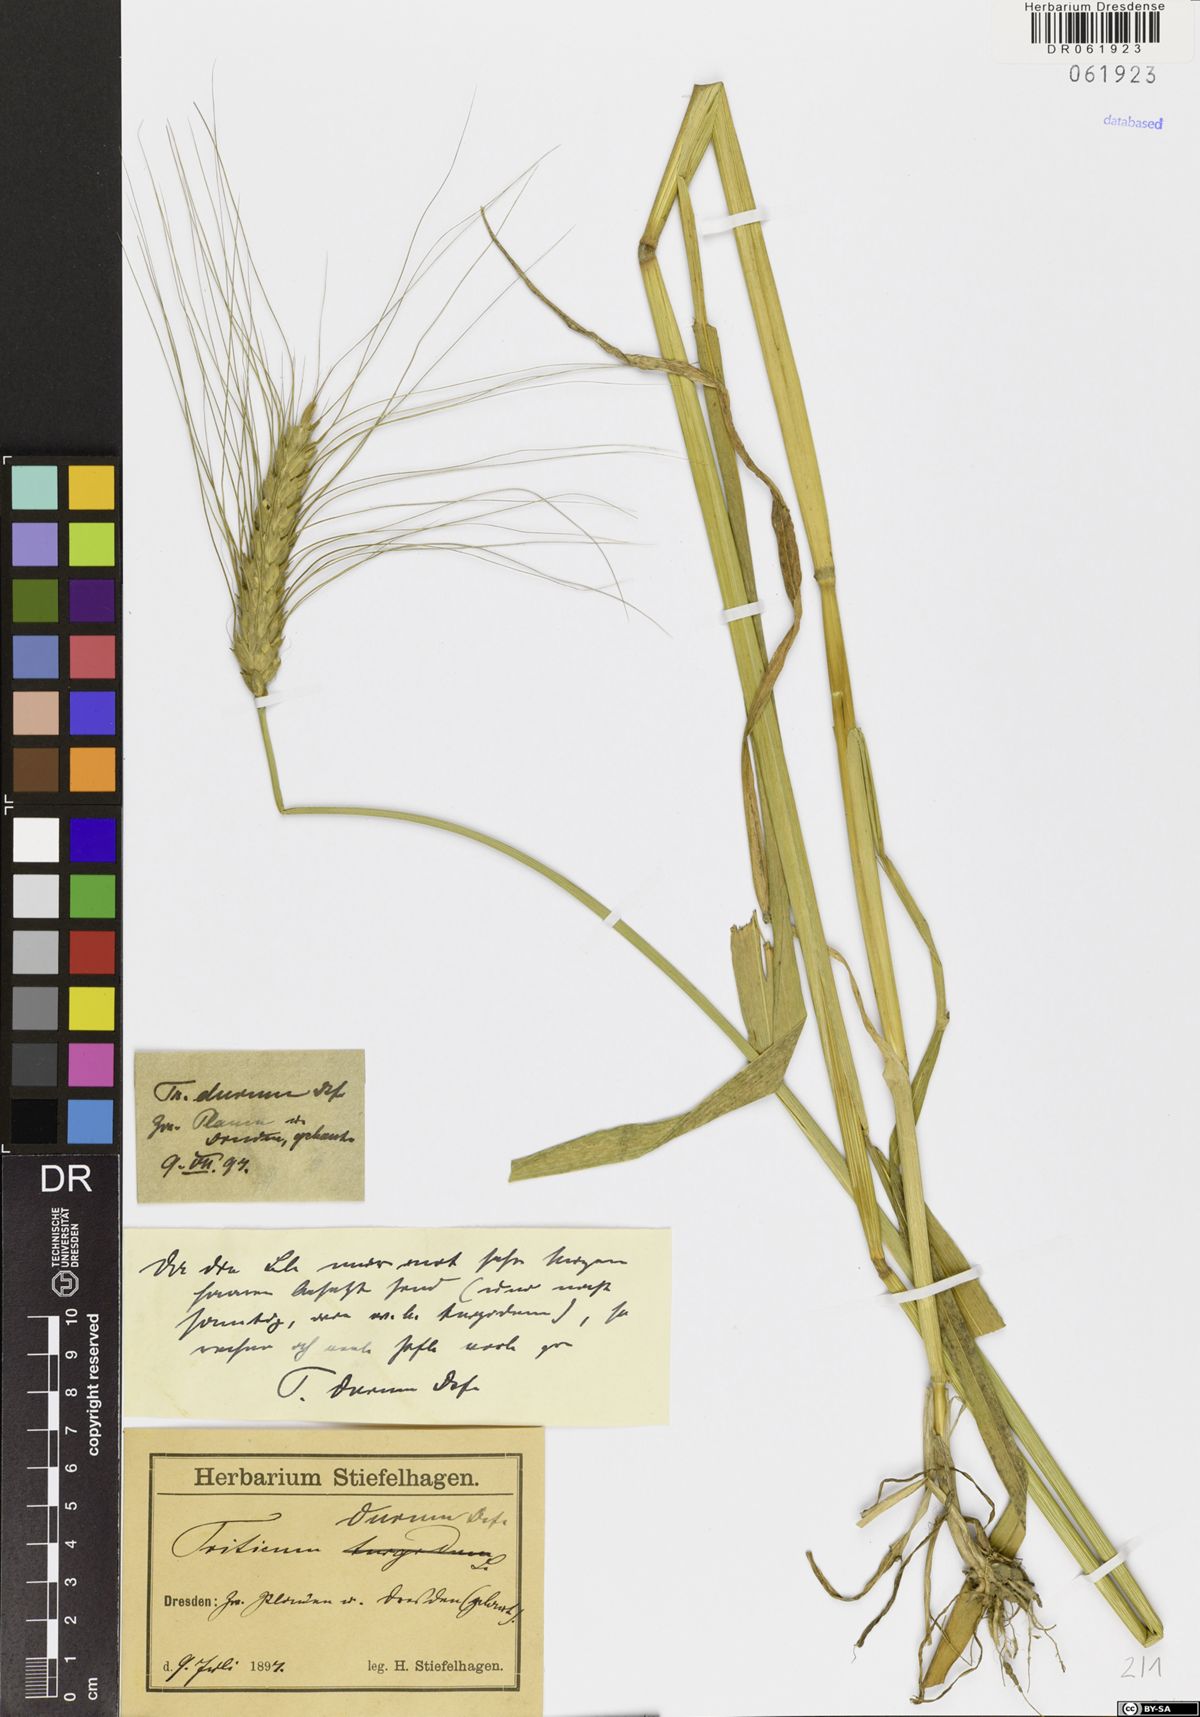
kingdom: Plantae
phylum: Tracheophyta
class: Liliopsida
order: Poales
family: Poaceae
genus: Triticum
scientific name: Triticum turgidum
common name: Rivet wheat
